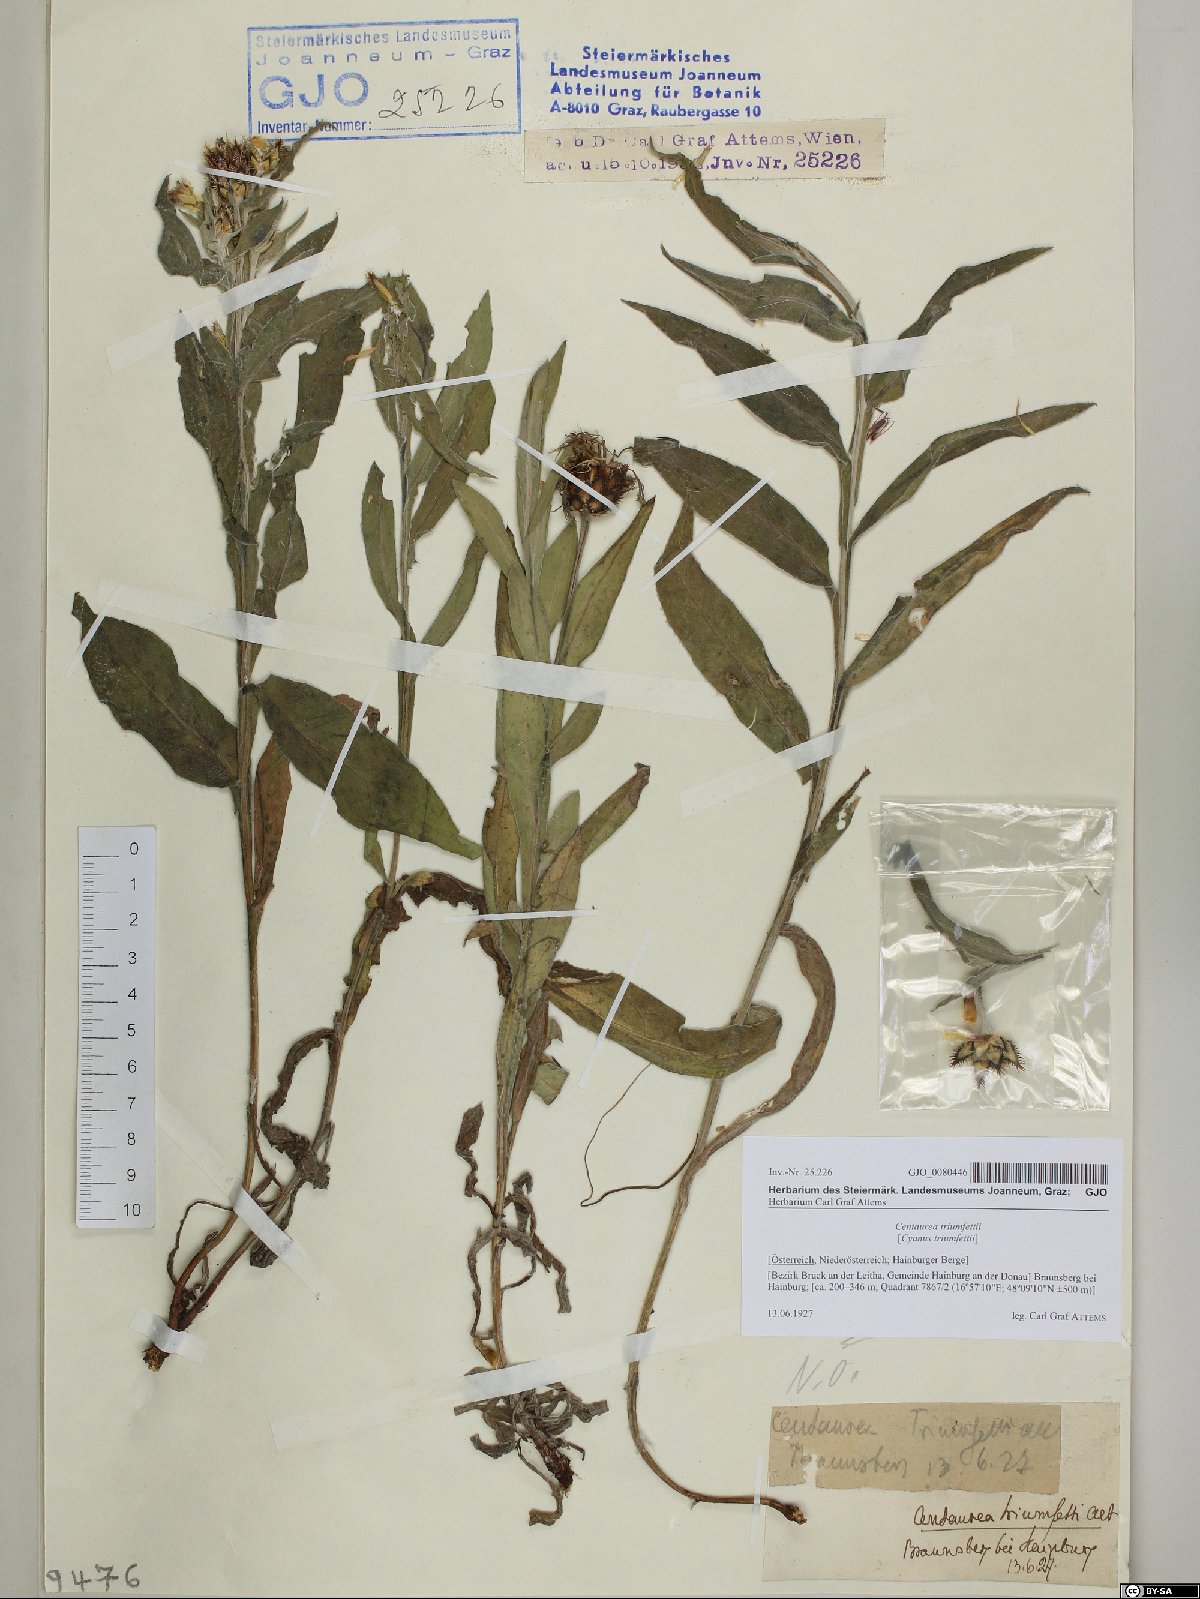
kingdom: Plantae
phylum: Tracheophyta
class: Magnoliopsida
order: Asterales
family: Asteraceae
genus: Centaurea
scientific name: Centaurea triumfettii
